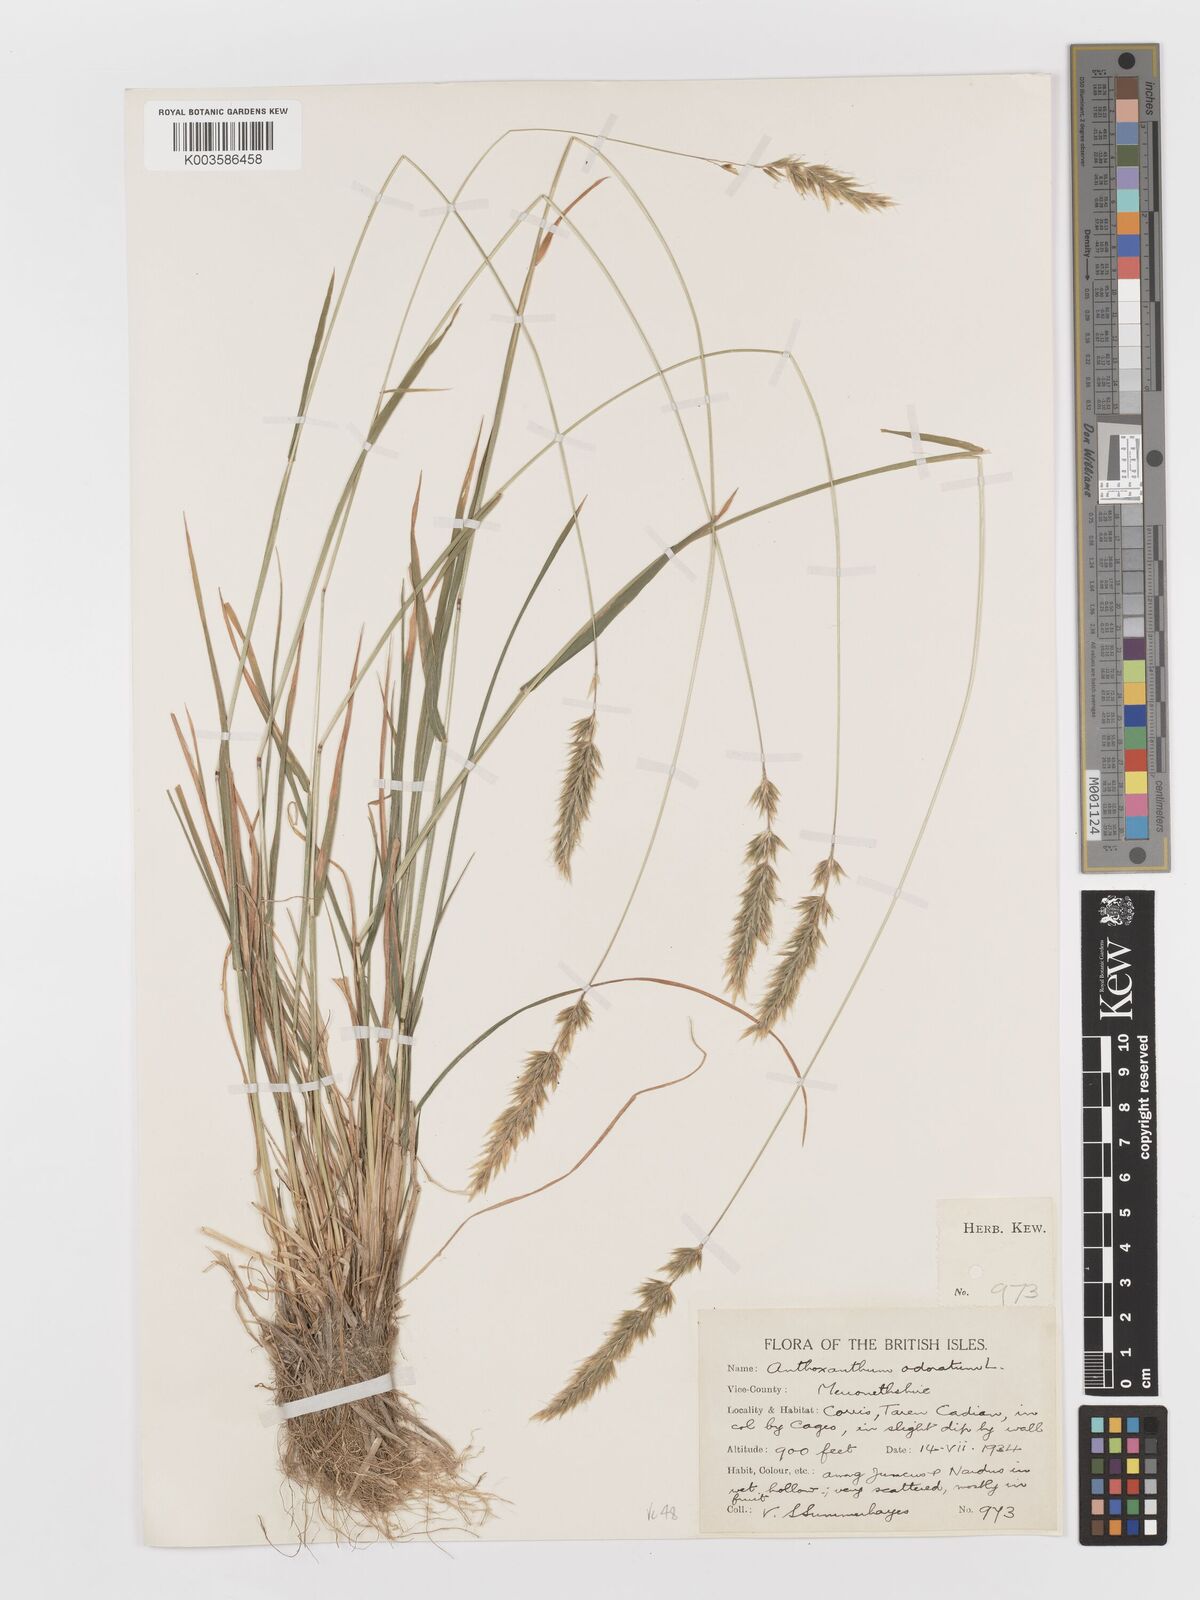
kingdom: Plantae
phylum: Tracheophyta
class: Liliopsida
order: Poales
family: Poaceae
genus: Anthoxanthum
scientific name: Anthoxanthum odoratum
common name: Sweet vernalgrass
